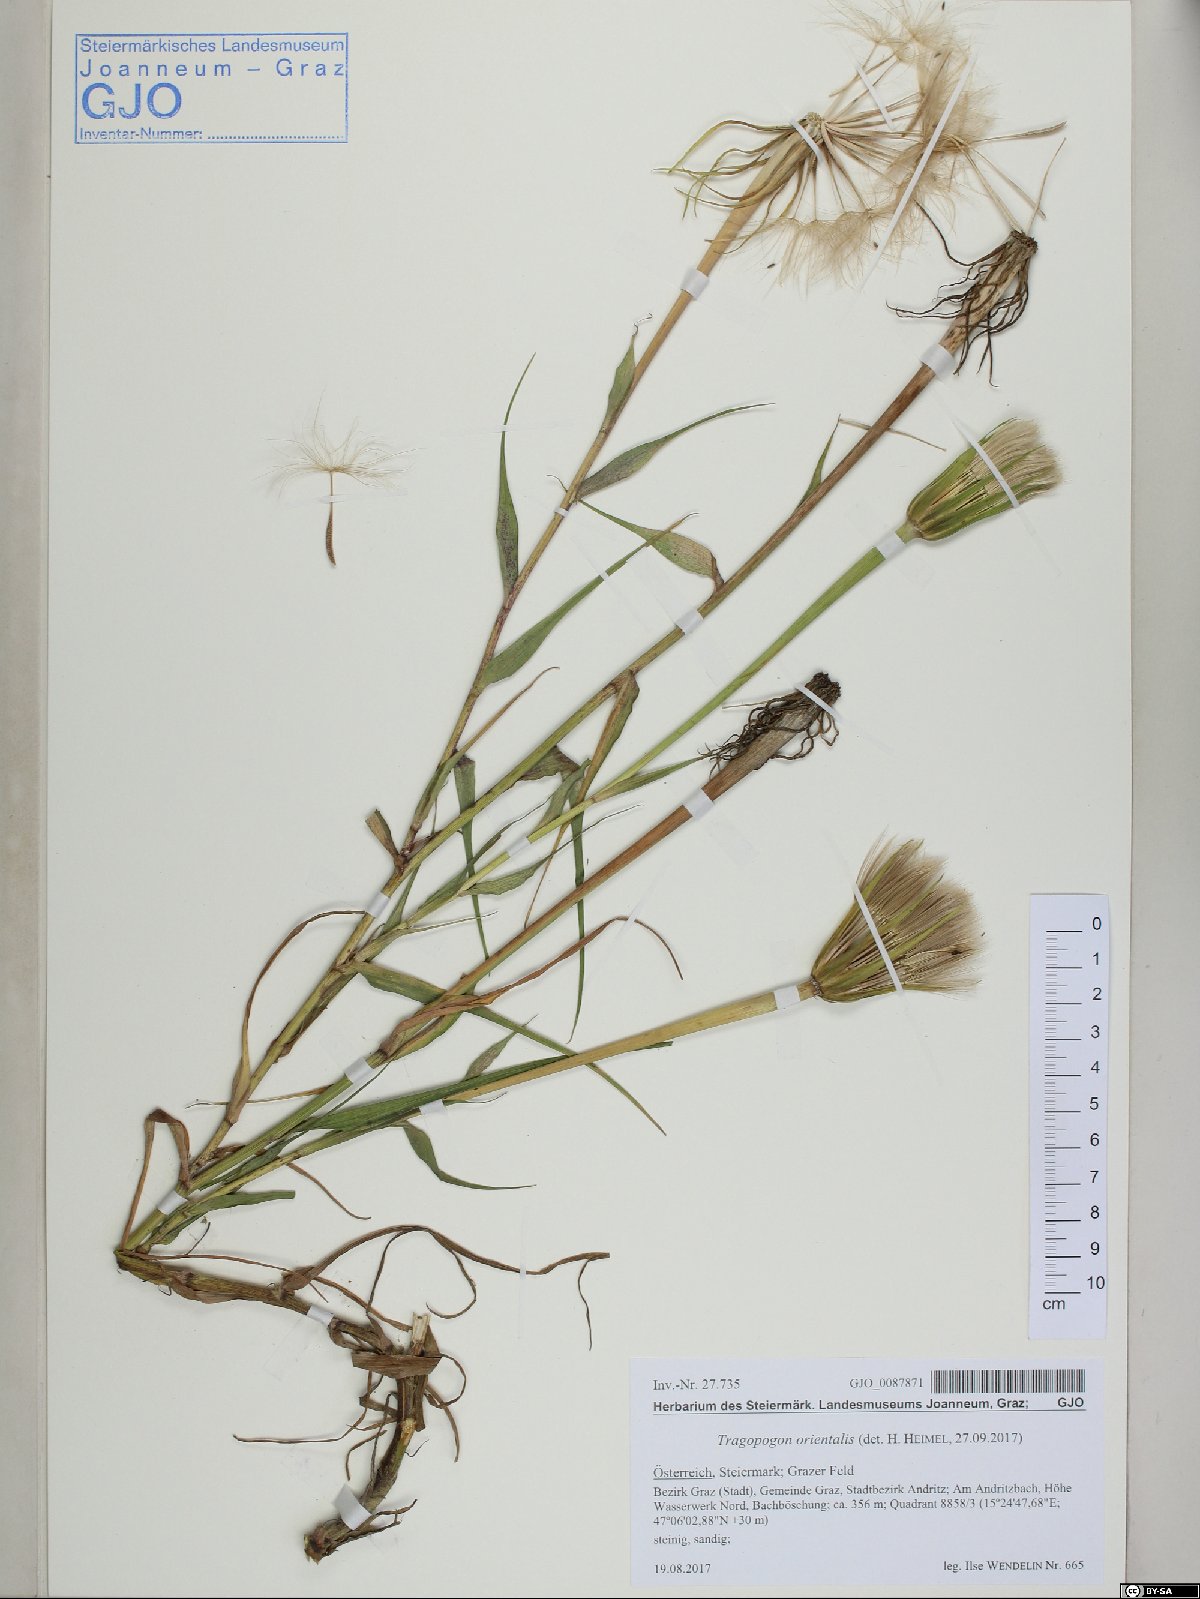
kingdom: Plantae
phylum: Tracheophyta
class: Magnoliopsida
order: Asterales
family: Asteraceae
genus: Tragopogon
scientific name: Tragopogon orientalis
